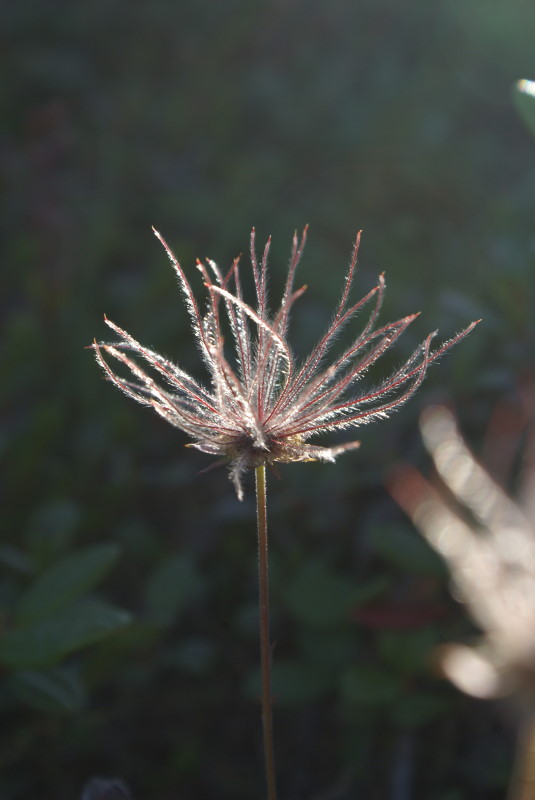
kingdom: Plantae
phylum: Tracheophyta
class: Magnoliopsida
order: Ranunculales
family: Ranunculaceae
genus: Pulsatilla
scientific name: Pulsatilla magadanensis
